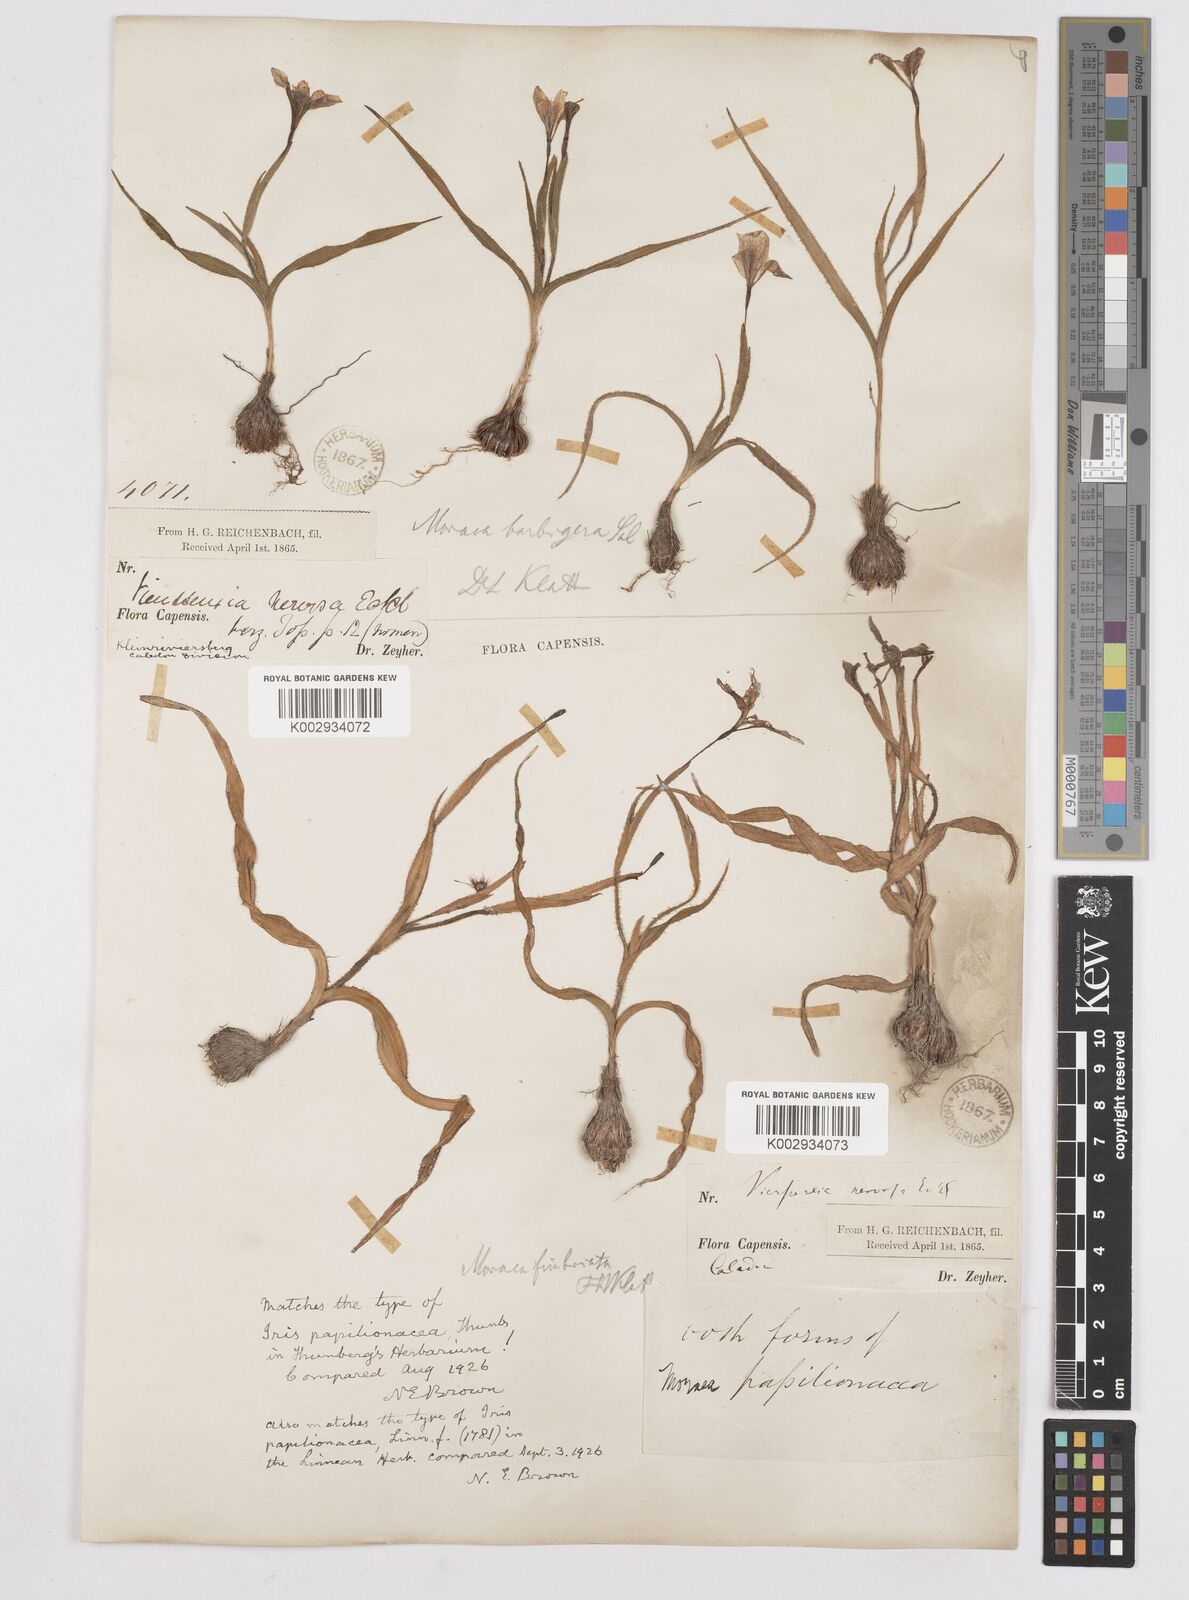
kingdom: Plantae
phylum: Tracheophyta
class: Liliopsida
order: Asparagales
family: Iridaceae
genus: Moraea
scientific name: Moraea papilionacea
